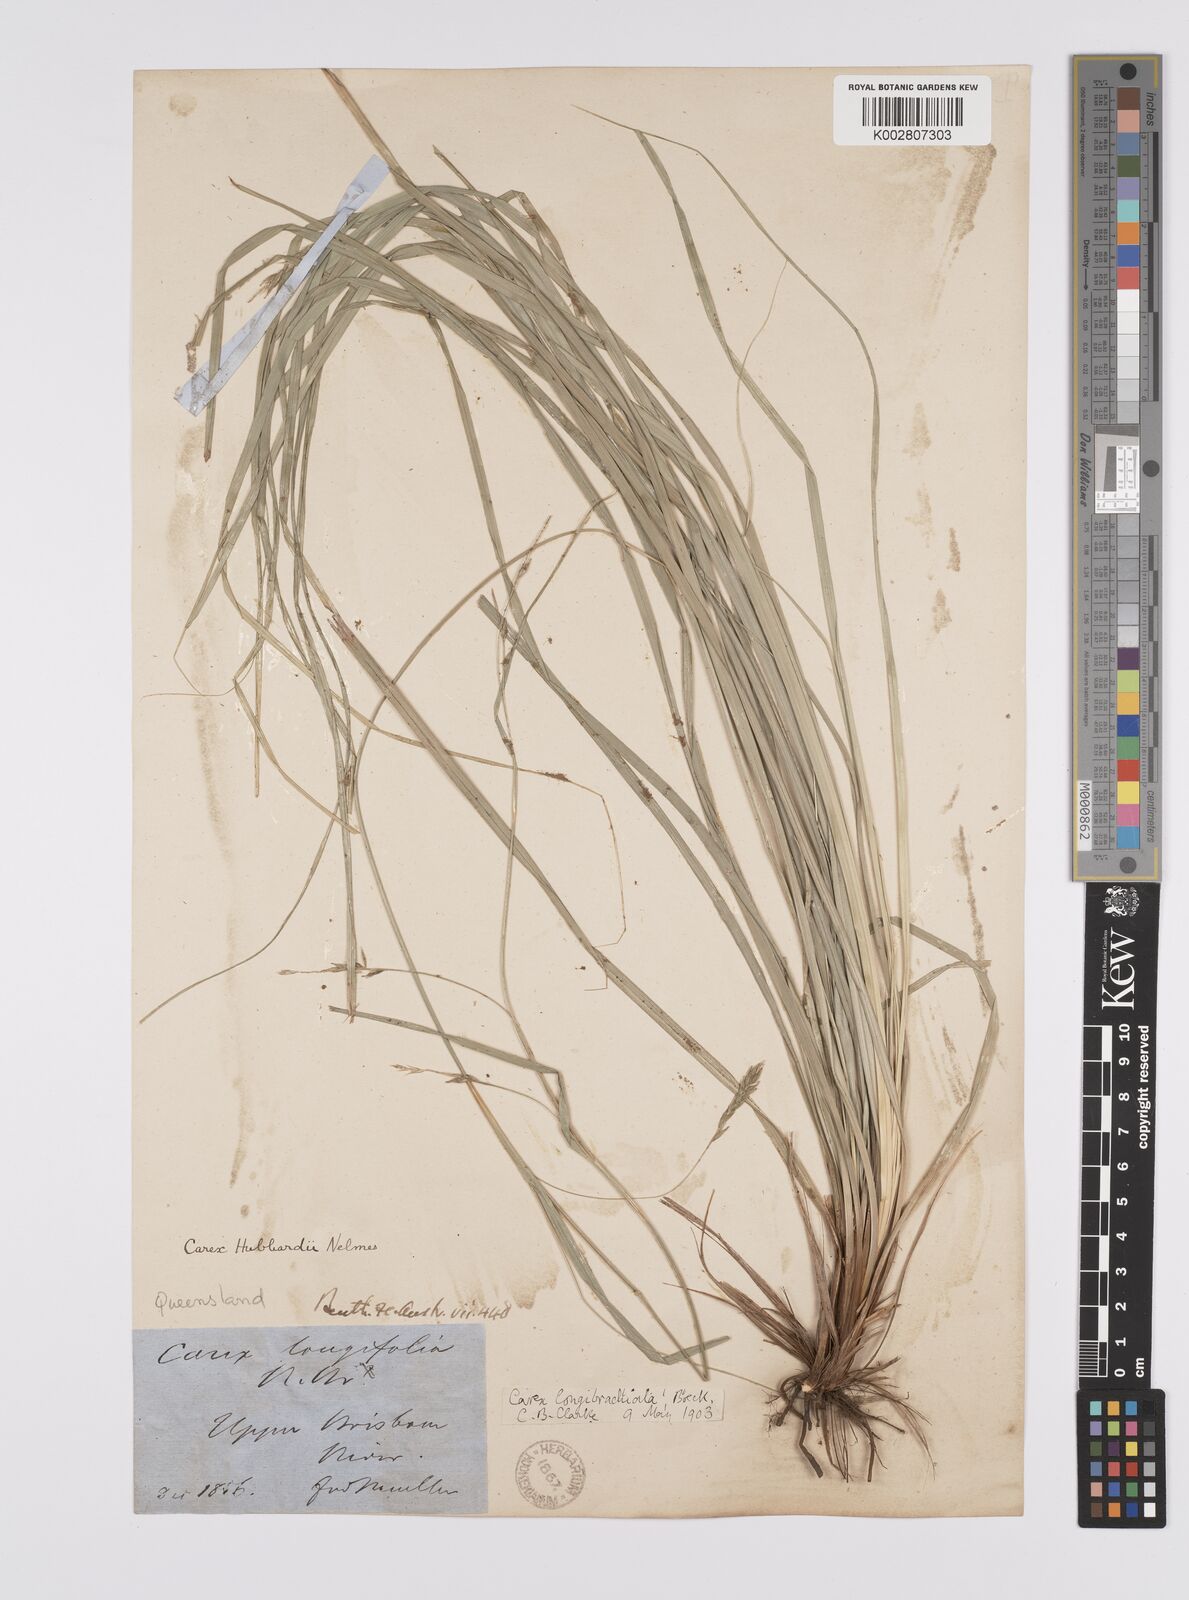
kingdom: Plantae
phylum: Tracheophyta
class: Liliopsida
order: Poales
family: Cyperaceae
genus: Carex
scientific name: Carex hubbardii
